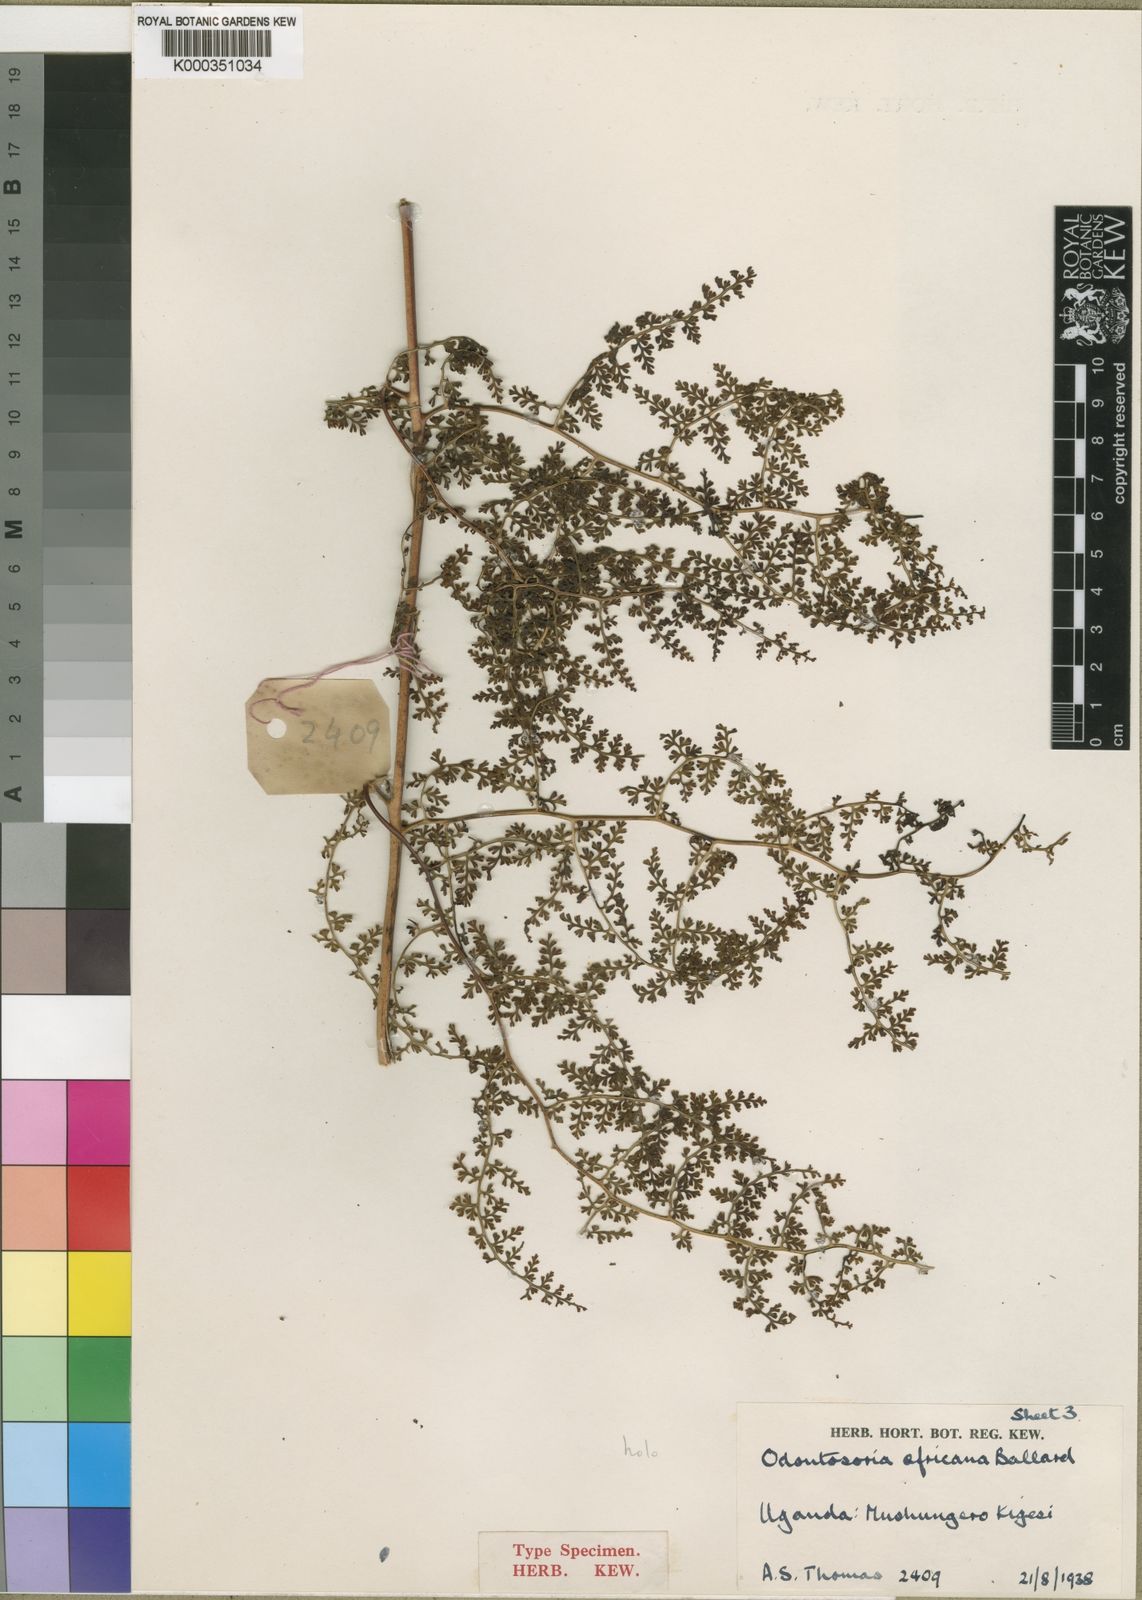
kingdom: Plantae
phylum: Tracheophyta
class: Polypodiopsida
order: Polypodiales
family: Lindsaeaceae
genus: Odontosoria
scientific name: Odontosoria africana
